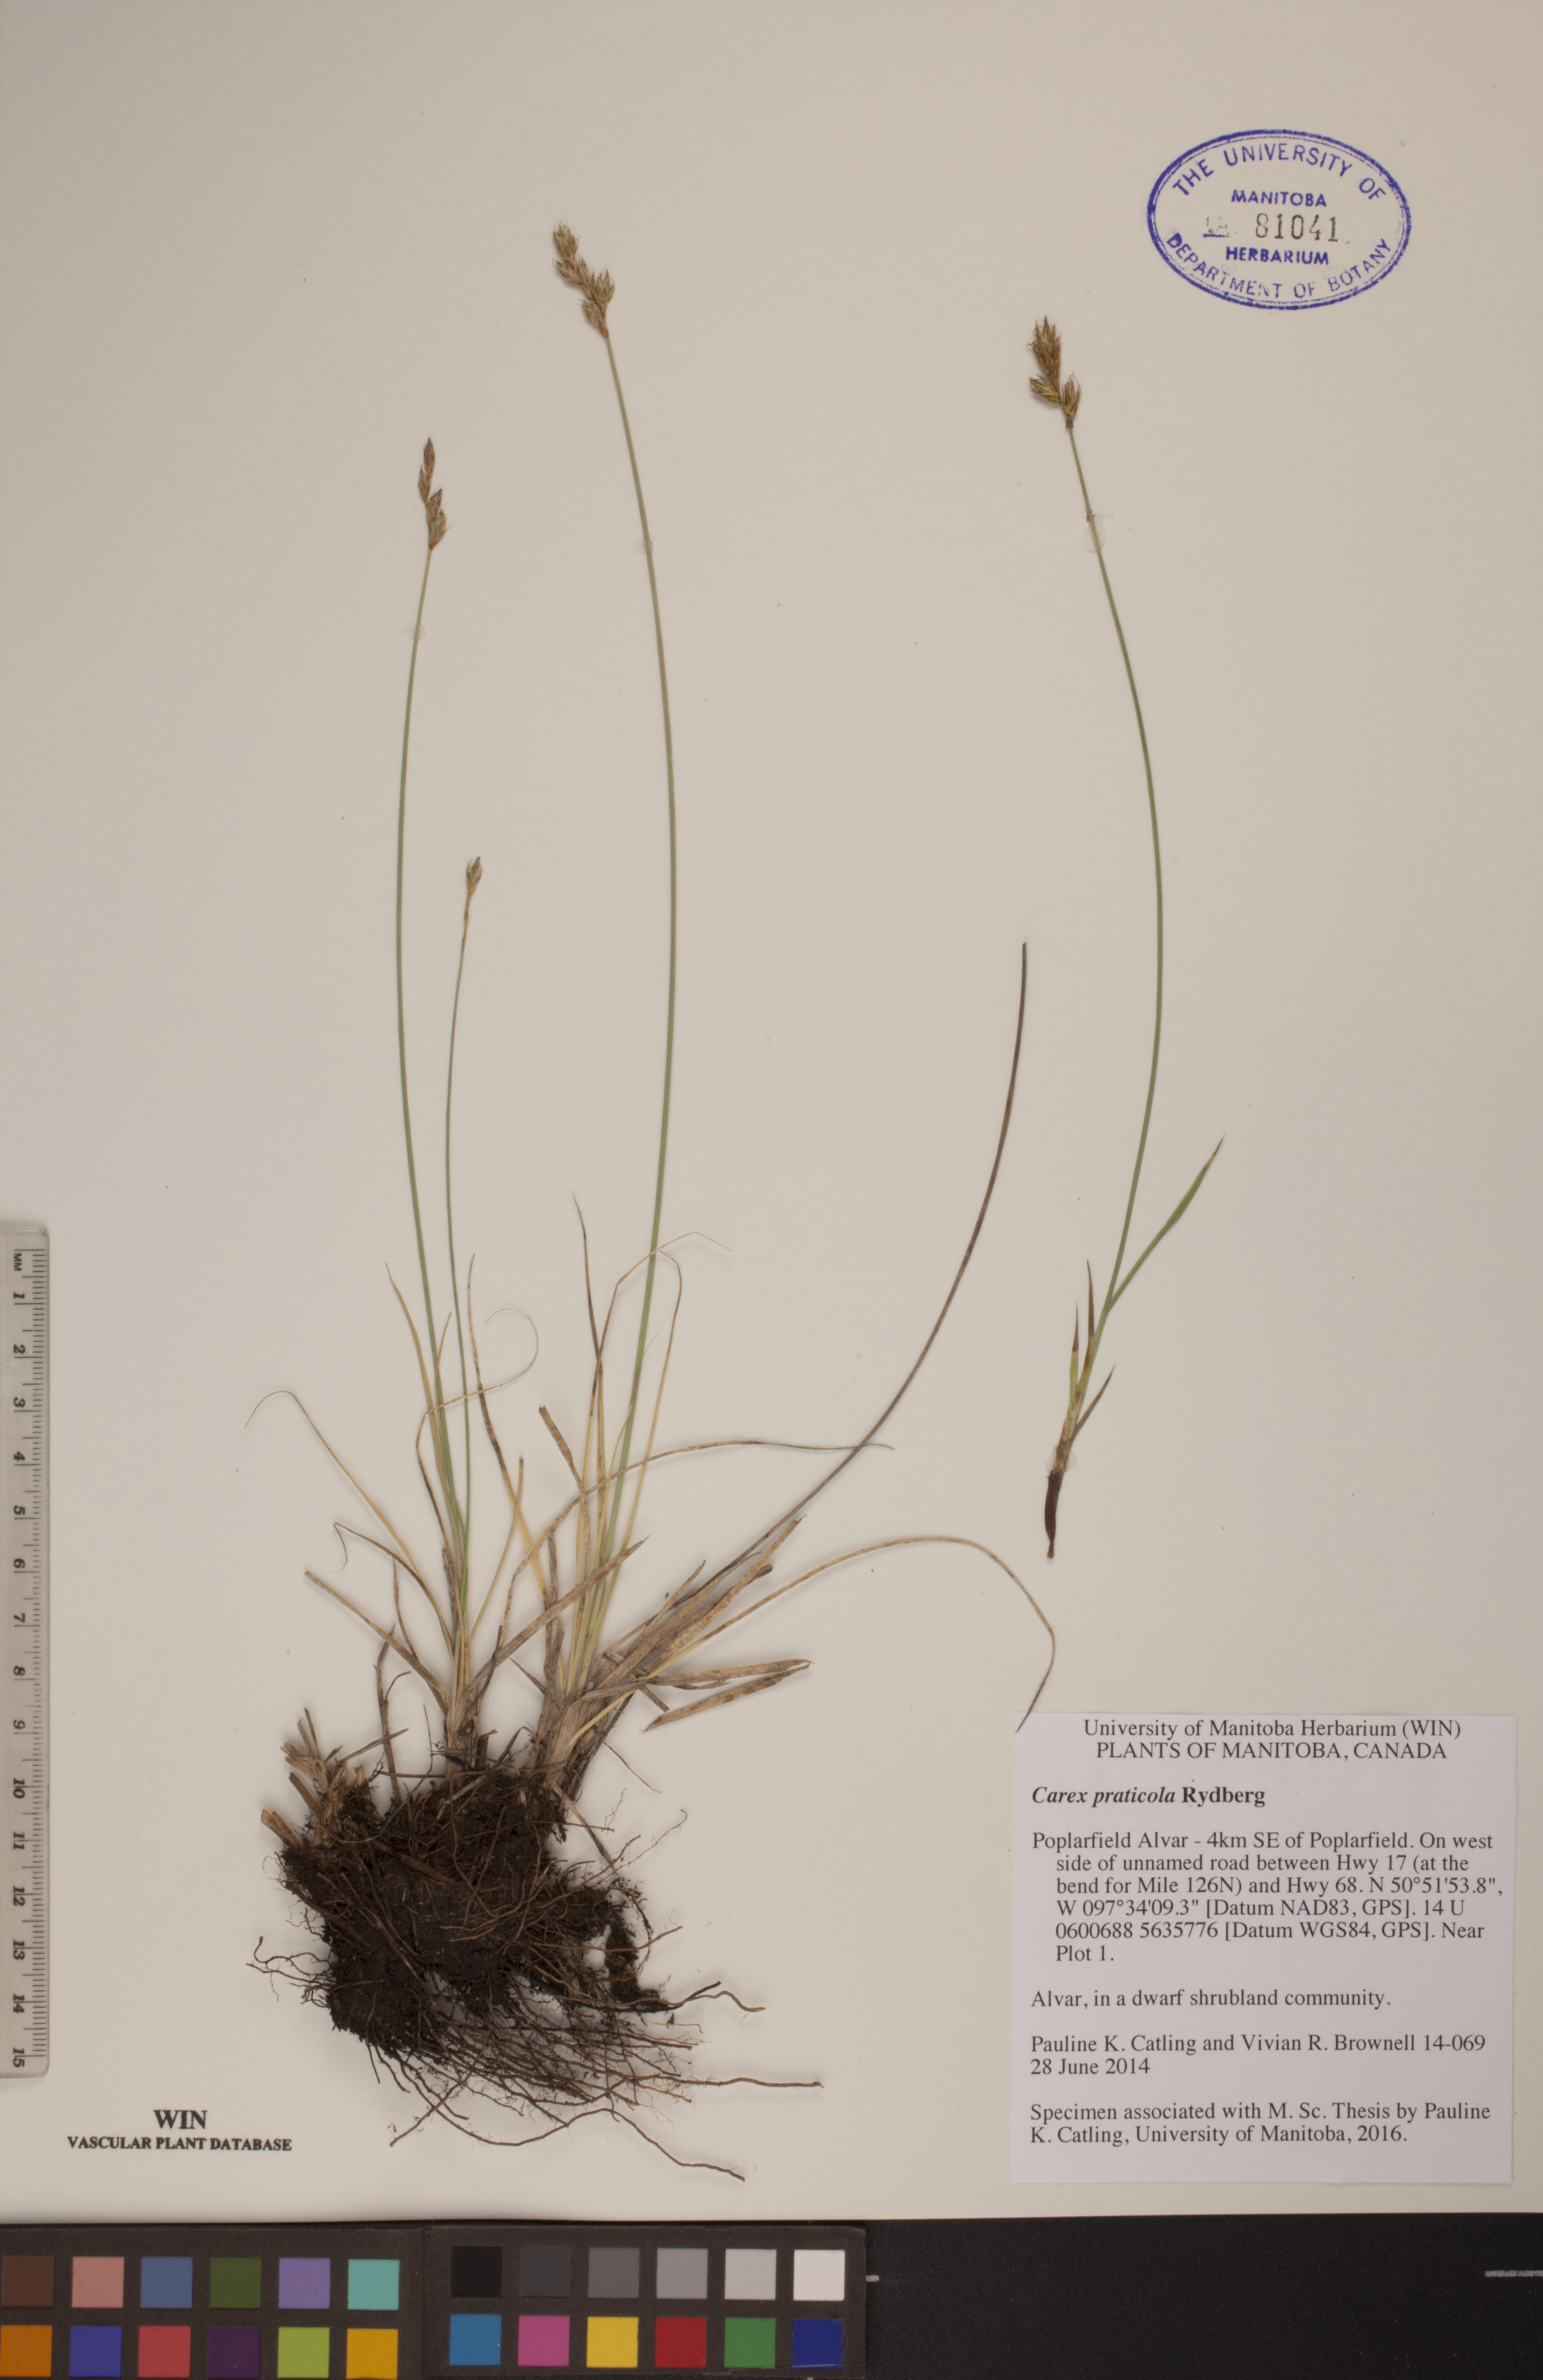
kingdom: Plantae
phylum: Tracheophyta
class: Liliopsida
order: Poales
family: Cyperaceae
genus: Carex
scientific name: Carex praticola
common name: Large-fruited oval sedge
